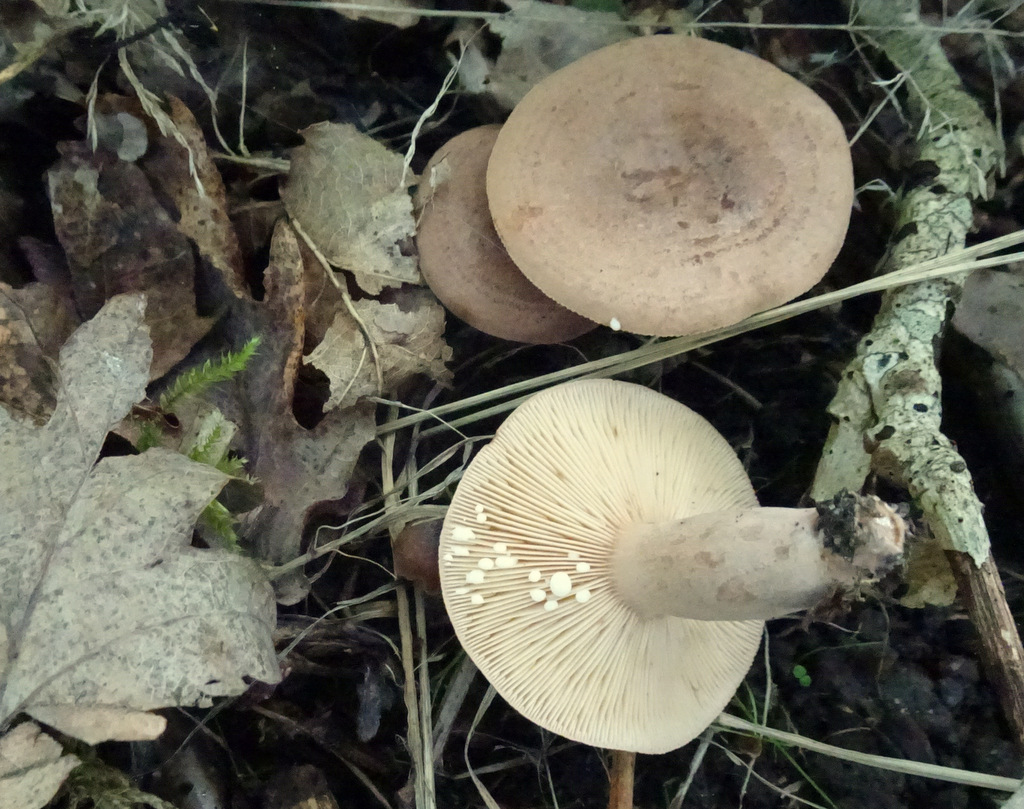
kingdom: Fungi
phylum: Basidiomycota
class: Agaricomycetes
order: Russulales
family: Russulaceae
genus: Lactarius
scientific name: Lactarius quietus
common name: ege-mælkehat
